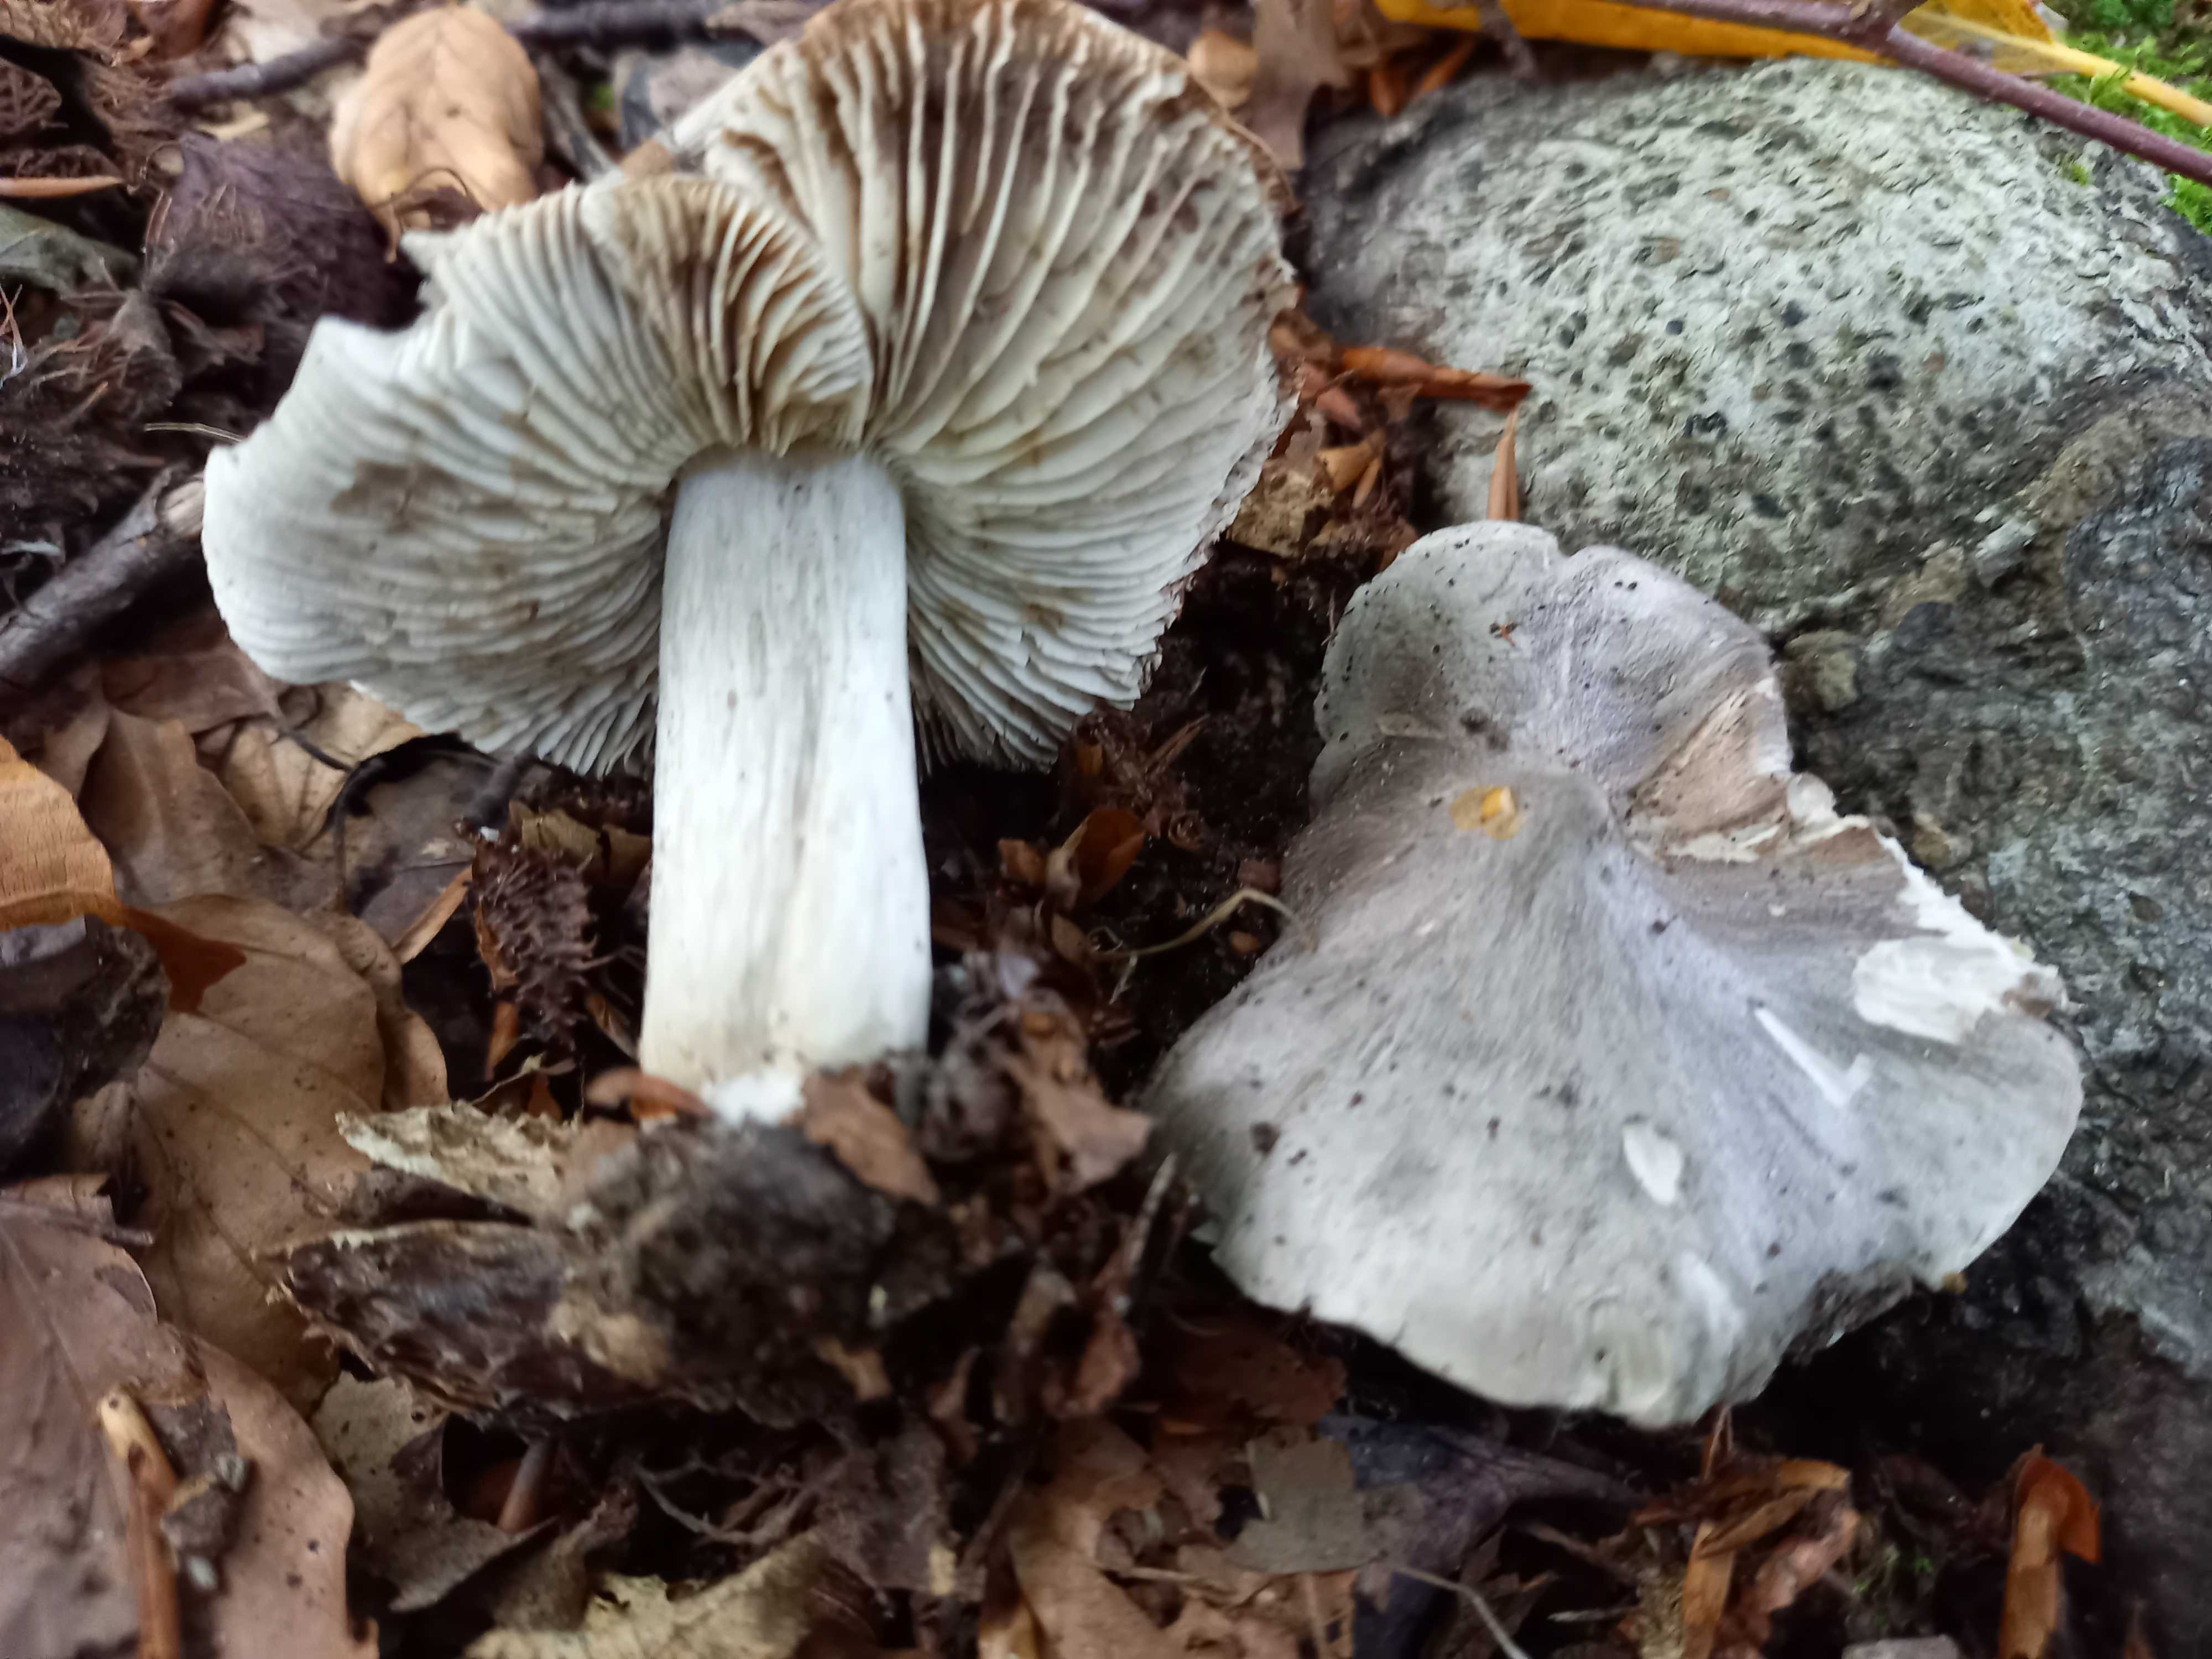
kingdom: Fungi
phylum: Basidiomycota
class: Agaricomycetes
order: Agaricales
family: Tricholomataceae
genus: Tricholoma
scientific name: Tricholoma sciodes
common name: stribet ridderhat
